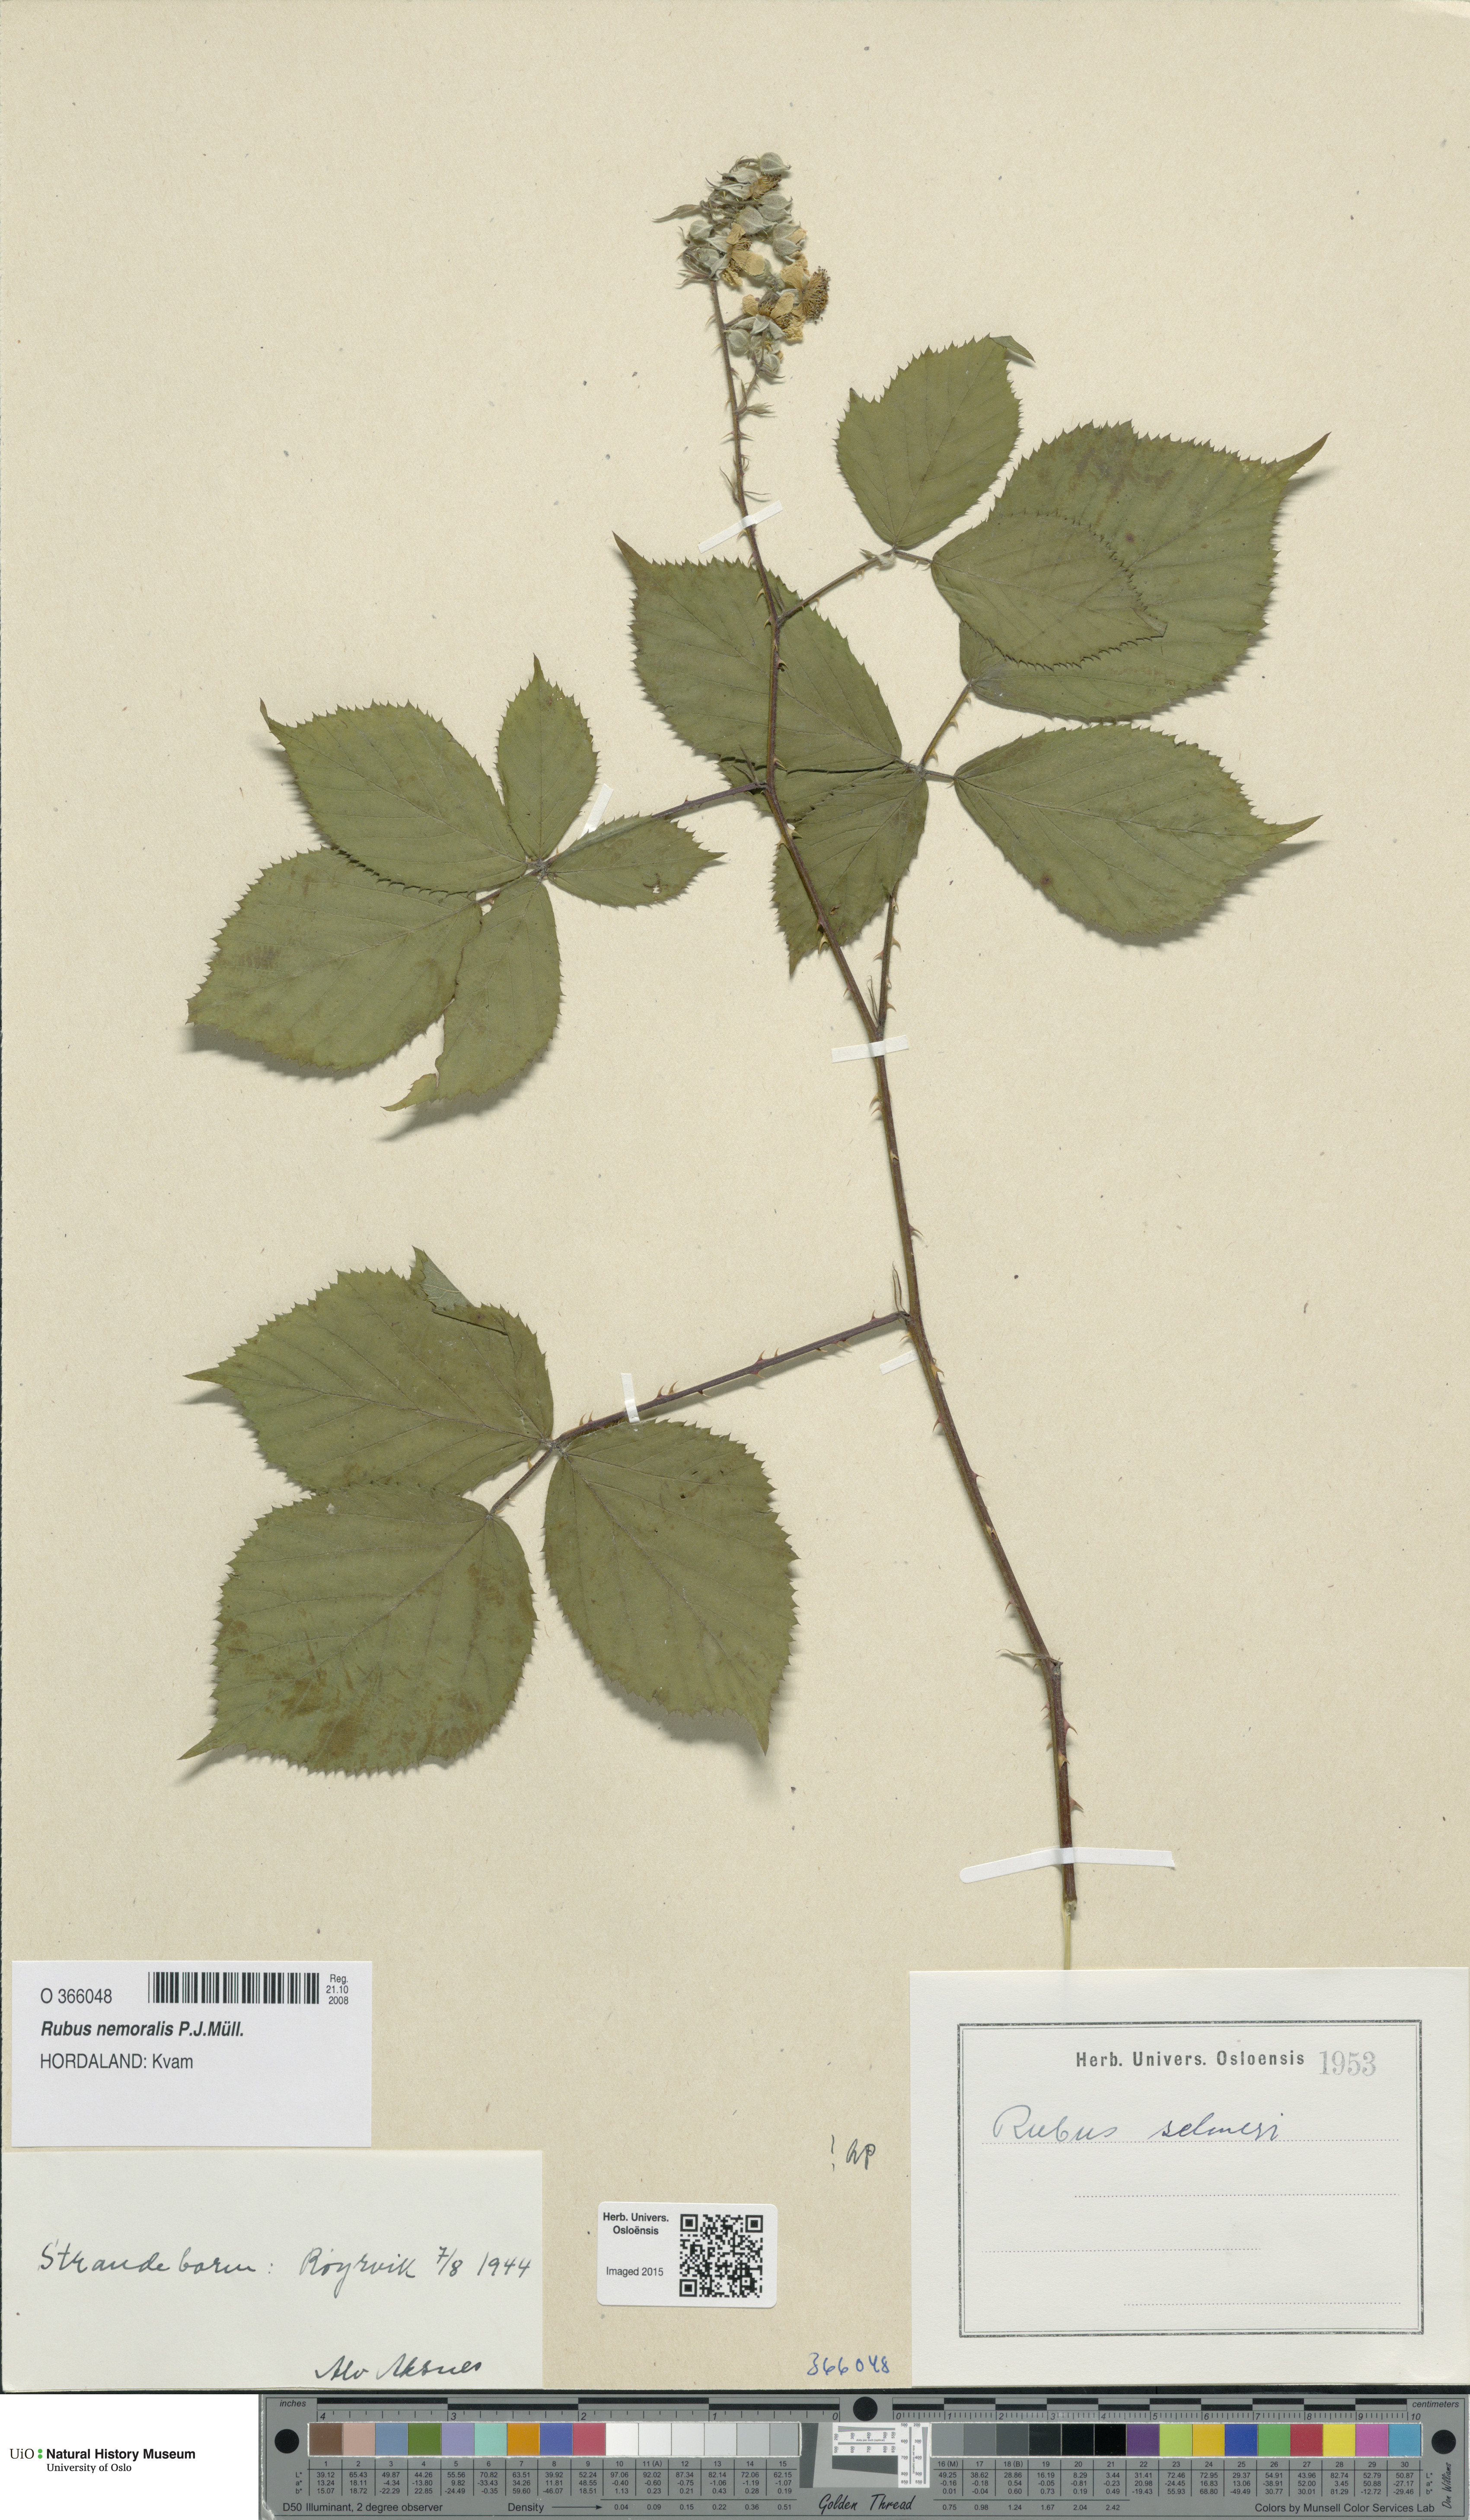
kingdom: Plantae
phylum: Tracheophyta
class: Magnoliopsida
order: Rosales
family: Rosaceae
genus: Rubus
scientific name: Rubus nemoralis
